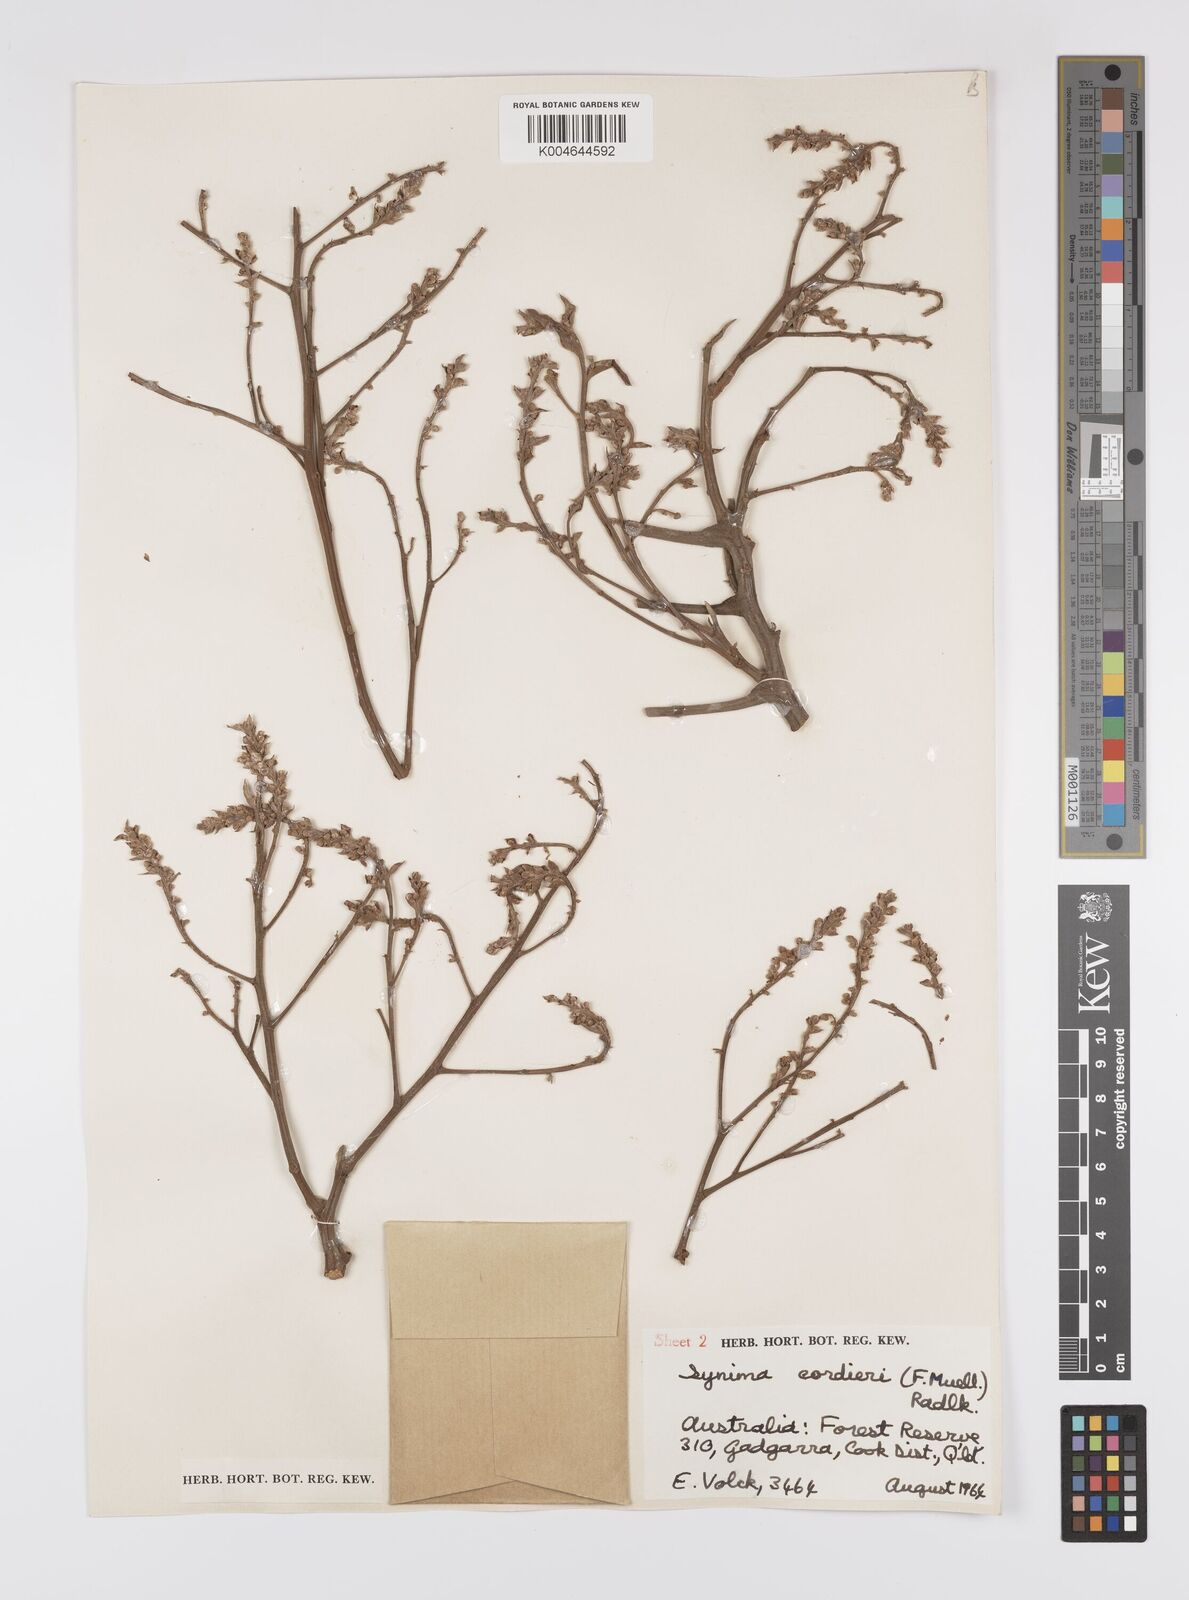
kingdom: Plantae
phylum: Tracheophyta
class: Magnoliopsida
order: Sapindales
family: Sapindaceae
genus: Synima
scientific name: Synima
